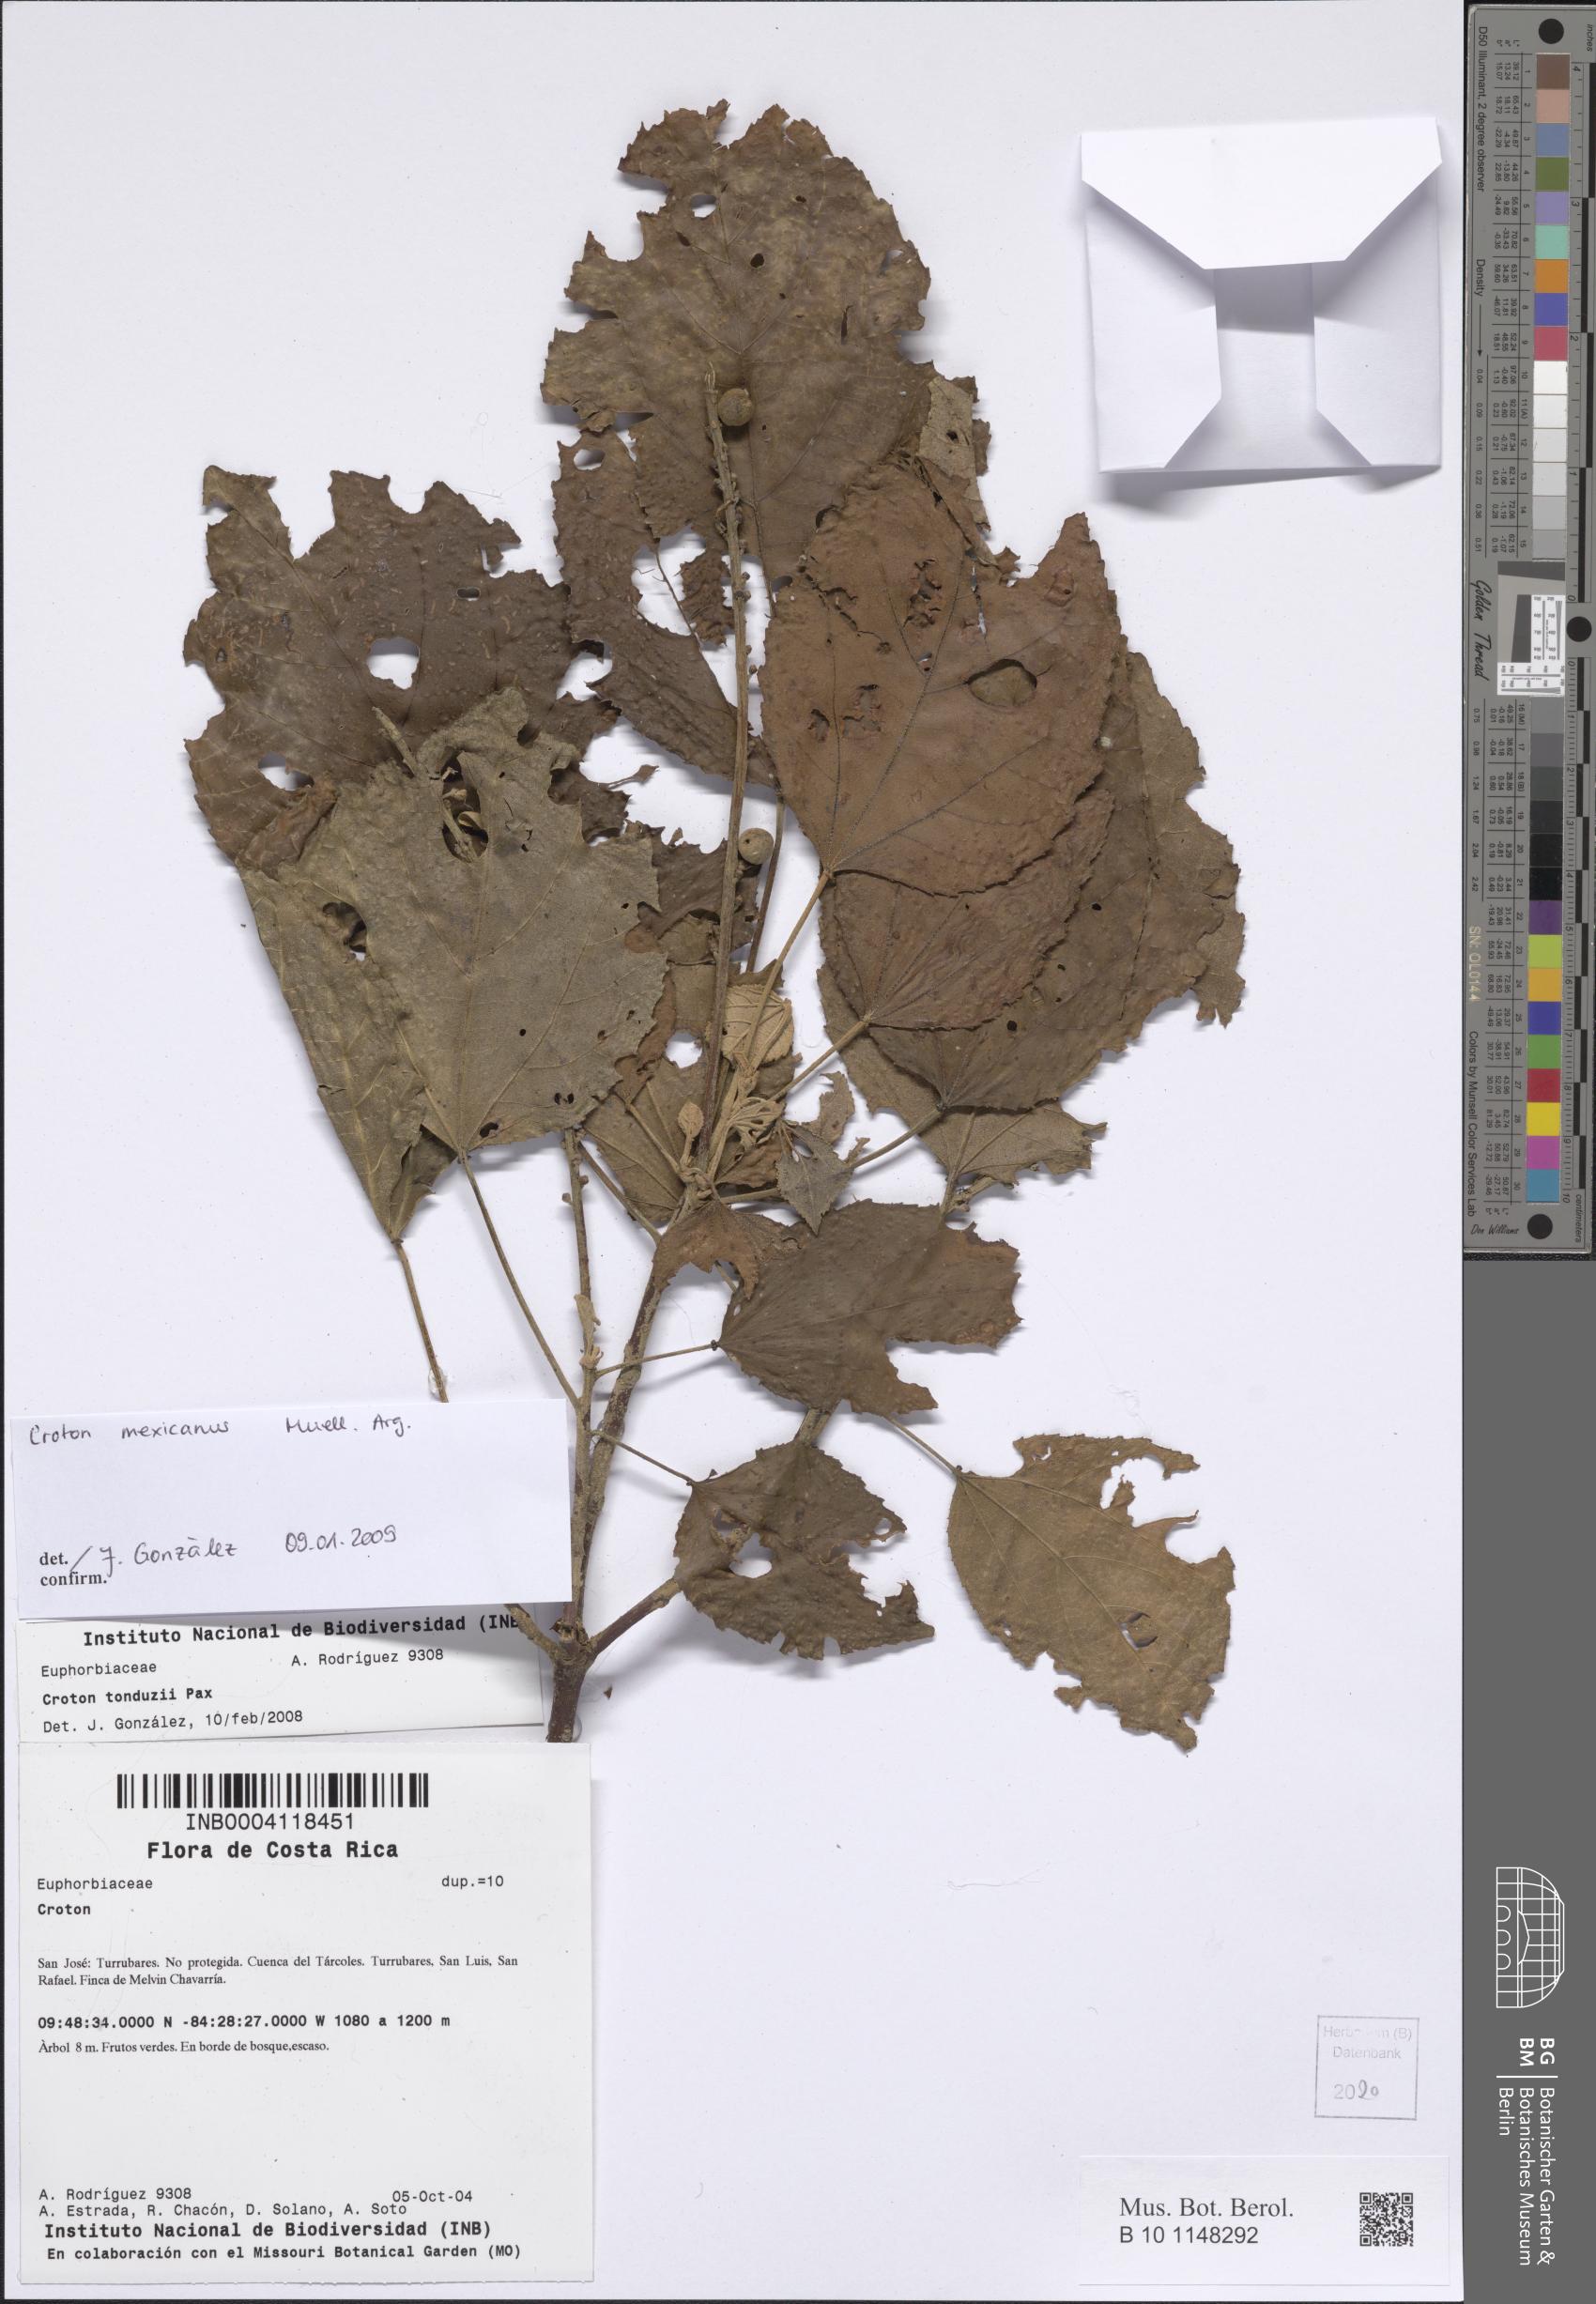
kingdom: Plantae
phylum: Tracheophyta
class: Magnoliopsida
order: Malpighiales
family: Euphorbiaceae
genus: Croton
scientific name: Croton mexicanus
